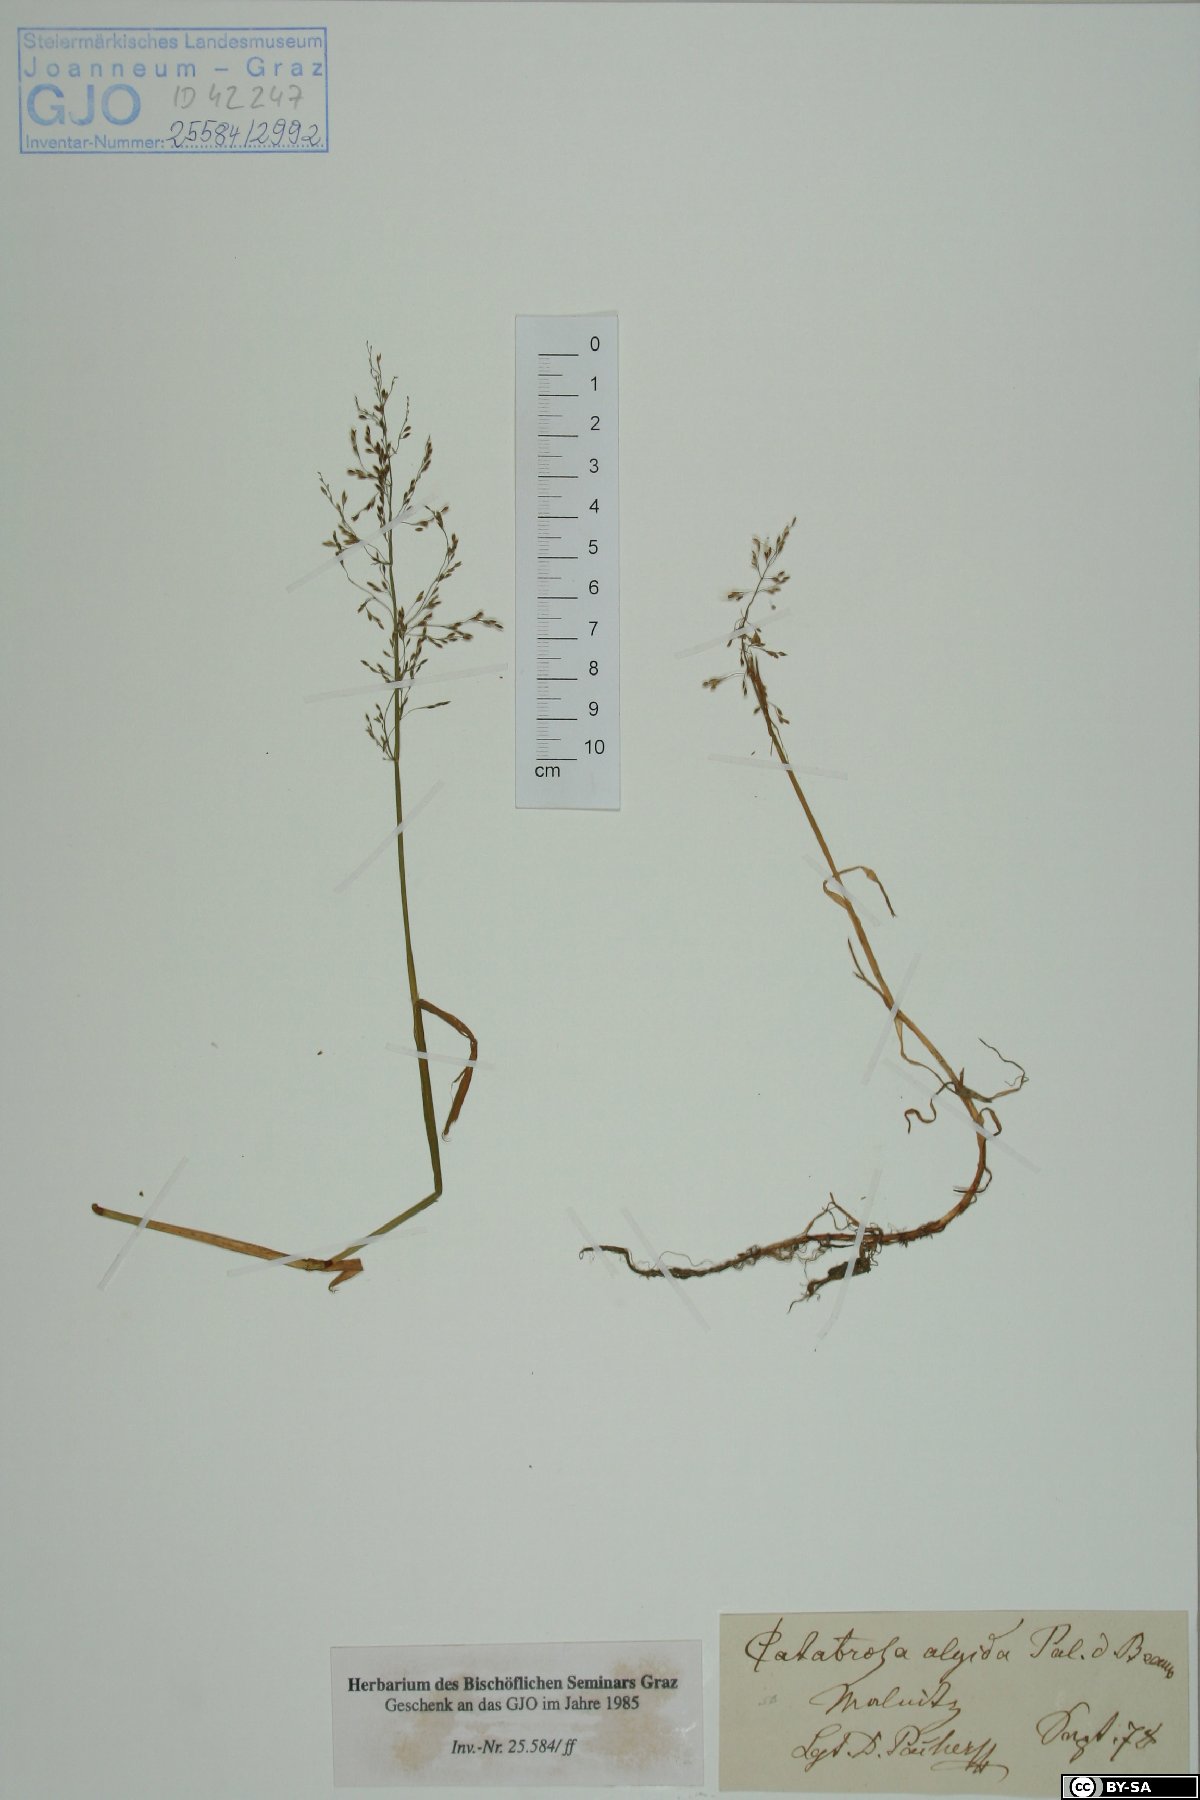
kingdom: Plantae
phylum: Tracheophyta
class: Liliopsida
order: Poales
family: Poaceae
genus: Phippsia
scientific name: Phippsia algida
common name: Ice grass
